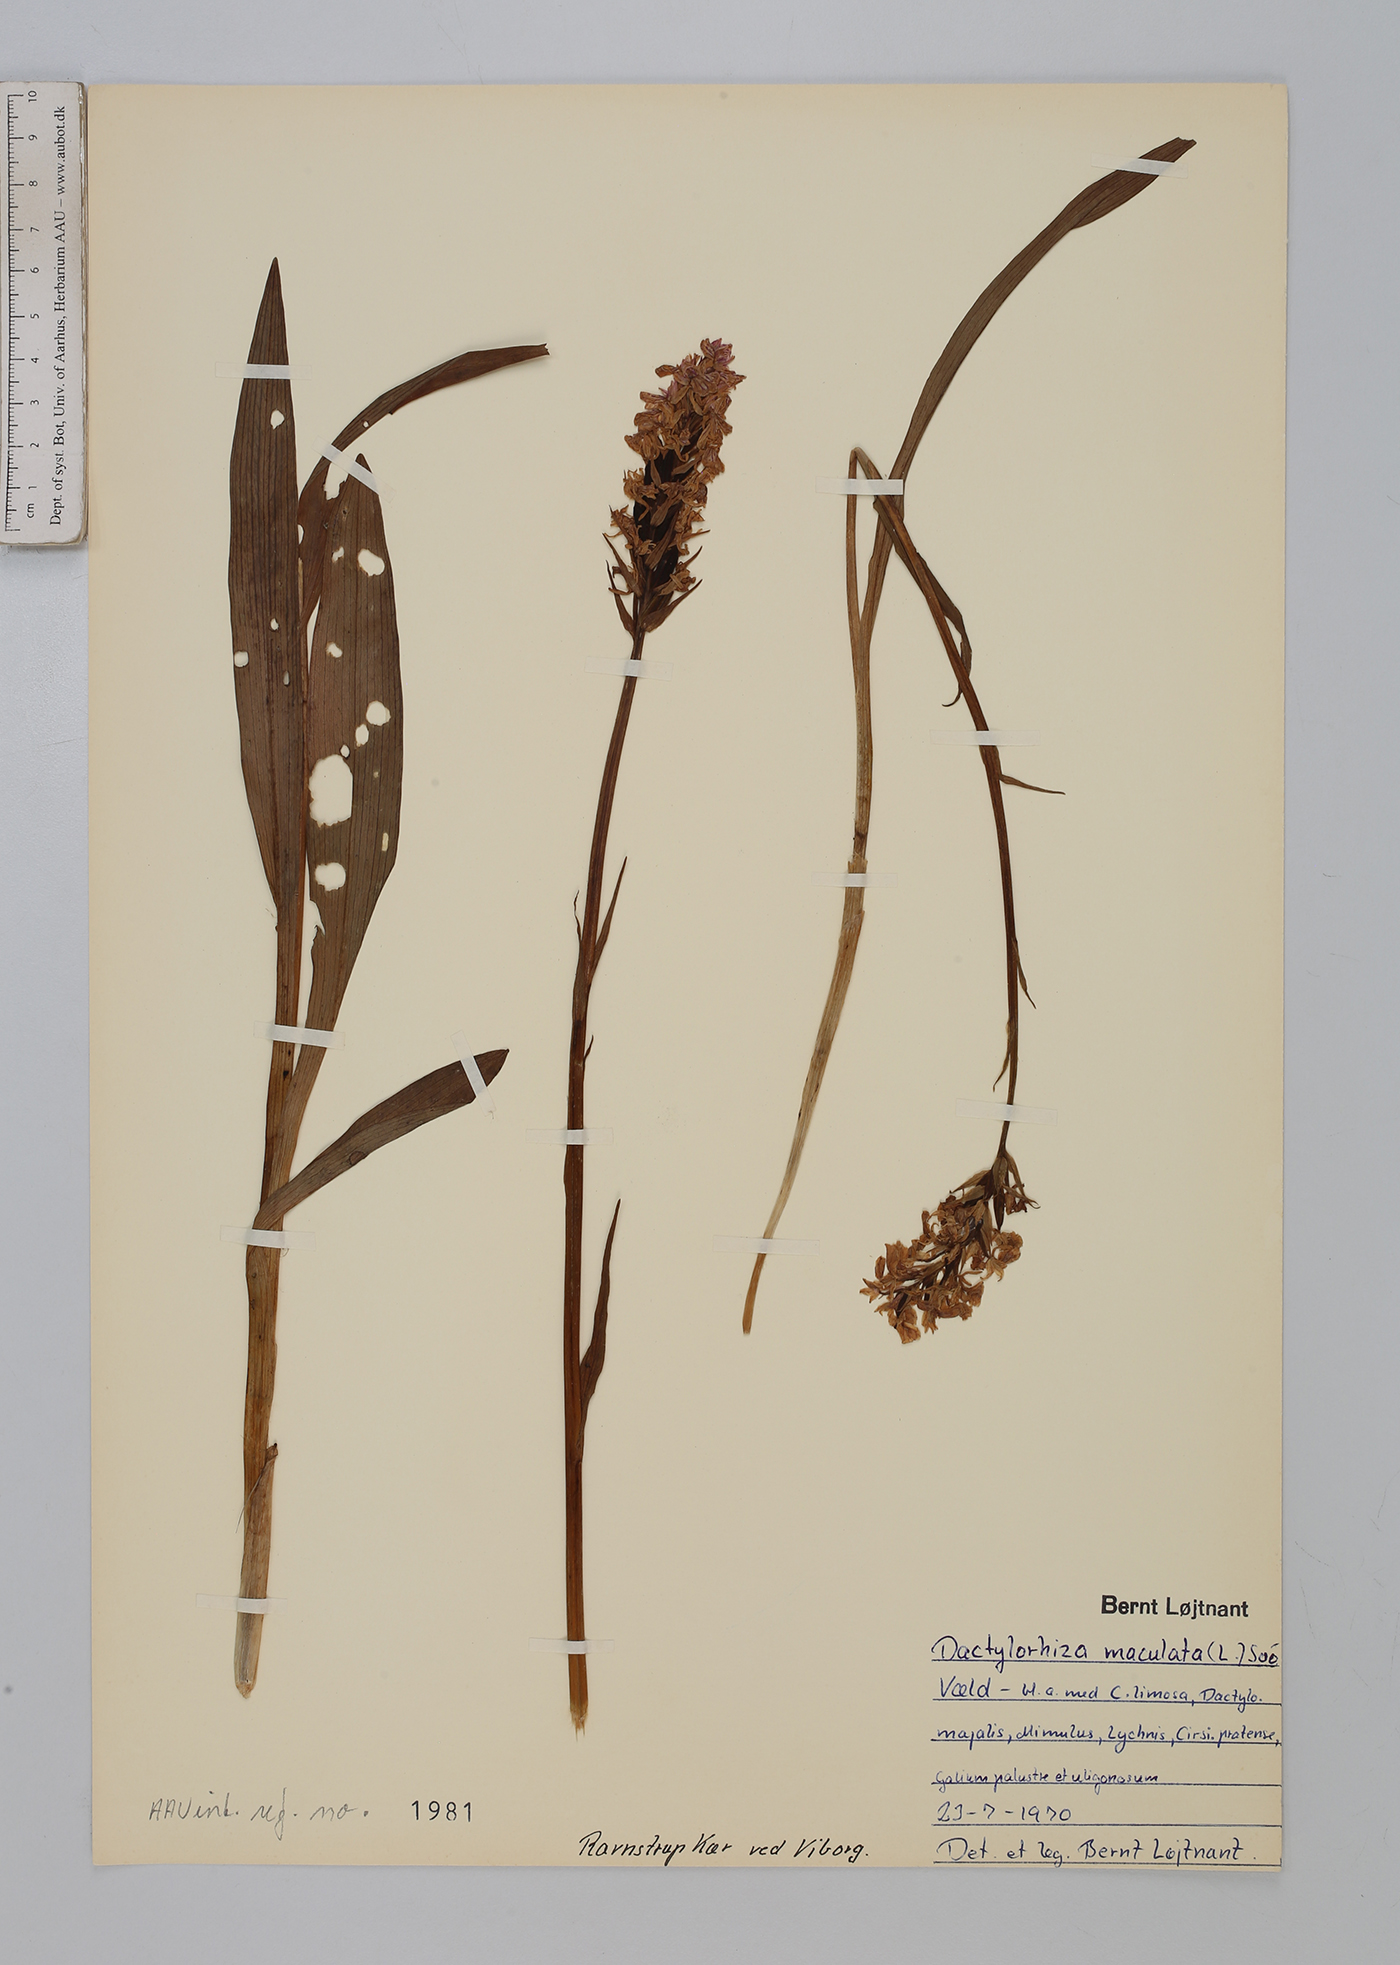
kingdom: Plantae
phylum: Tracheophyta
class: Liliopsida
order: Asparagales
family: Orchidaceae
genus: Dactylorhiza
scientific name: Dactylorhiza maculata
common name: Heath spotted-orchid
